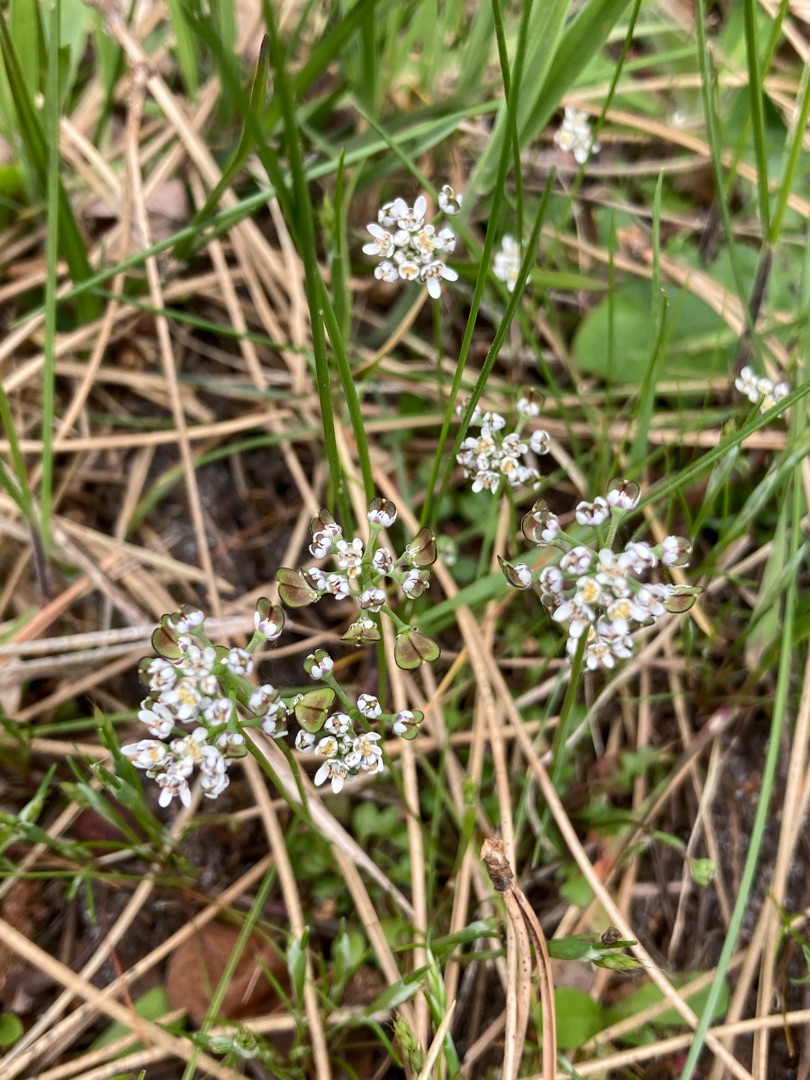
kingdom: Plantae
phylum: Tracheophyta
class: Magnoliopsida
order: Brassicales
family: Brassicaceae
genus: Teesdalia
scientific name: Teesdalia nudicaulis
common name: Flipkrave
